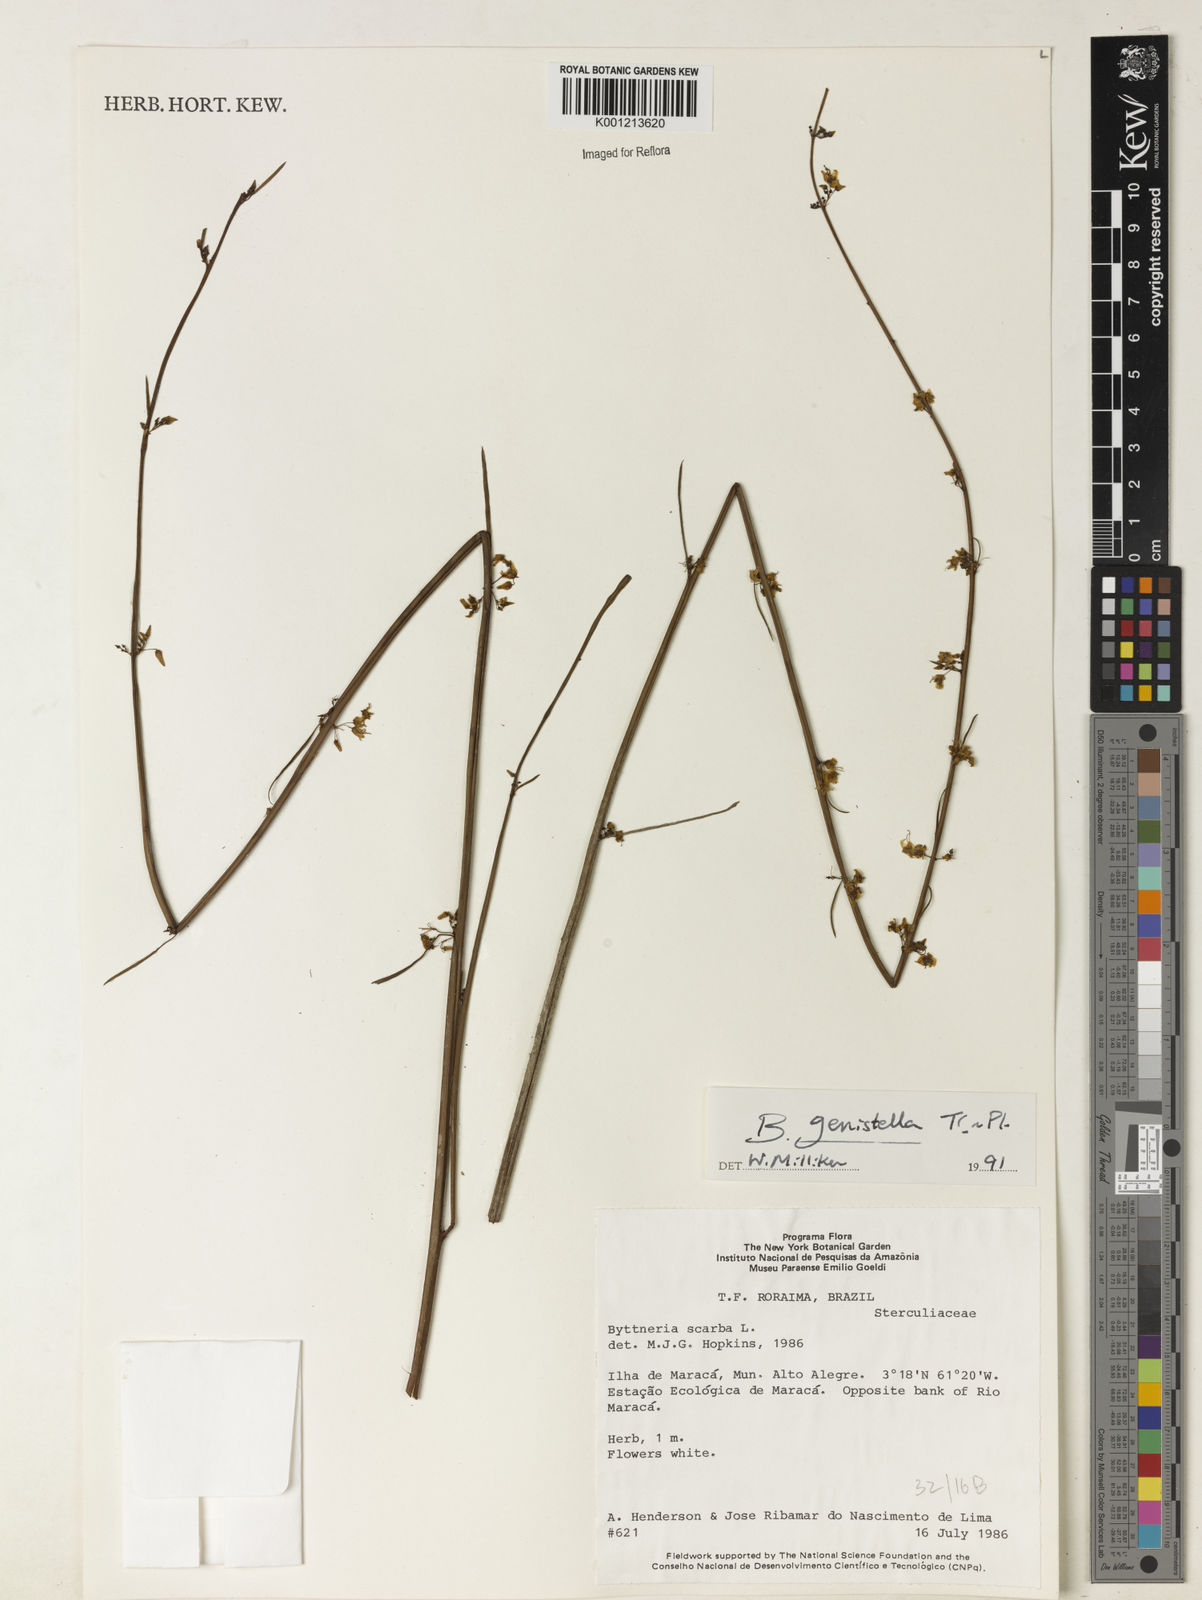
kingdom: Plantae
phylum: Tracheophyta
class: Magnoliopsida
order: Malvales
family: Malvaceae
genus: Byttneria
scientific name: Byttneria genistella
